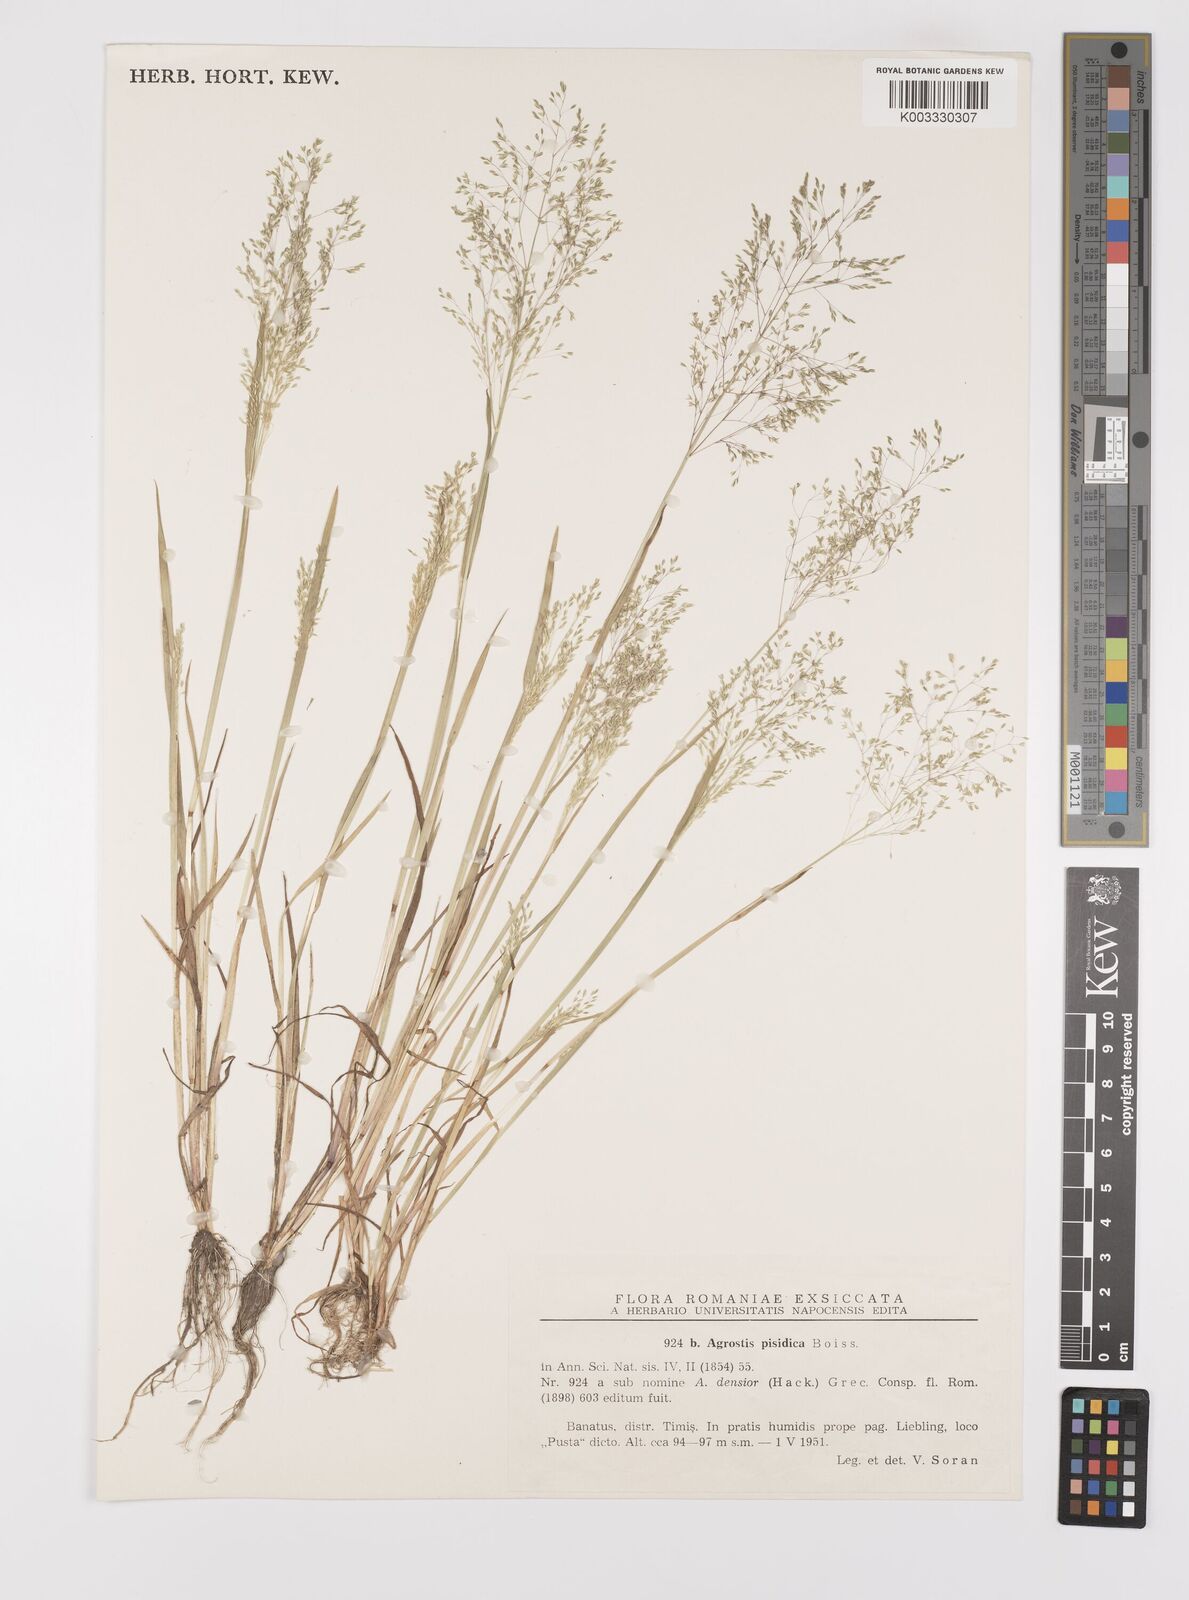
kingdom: Plantae
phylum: Tracheophyta
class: Liliopsida
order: Poales
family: Poaceae
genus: Colpodium
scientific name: Colpodium pisidicum
